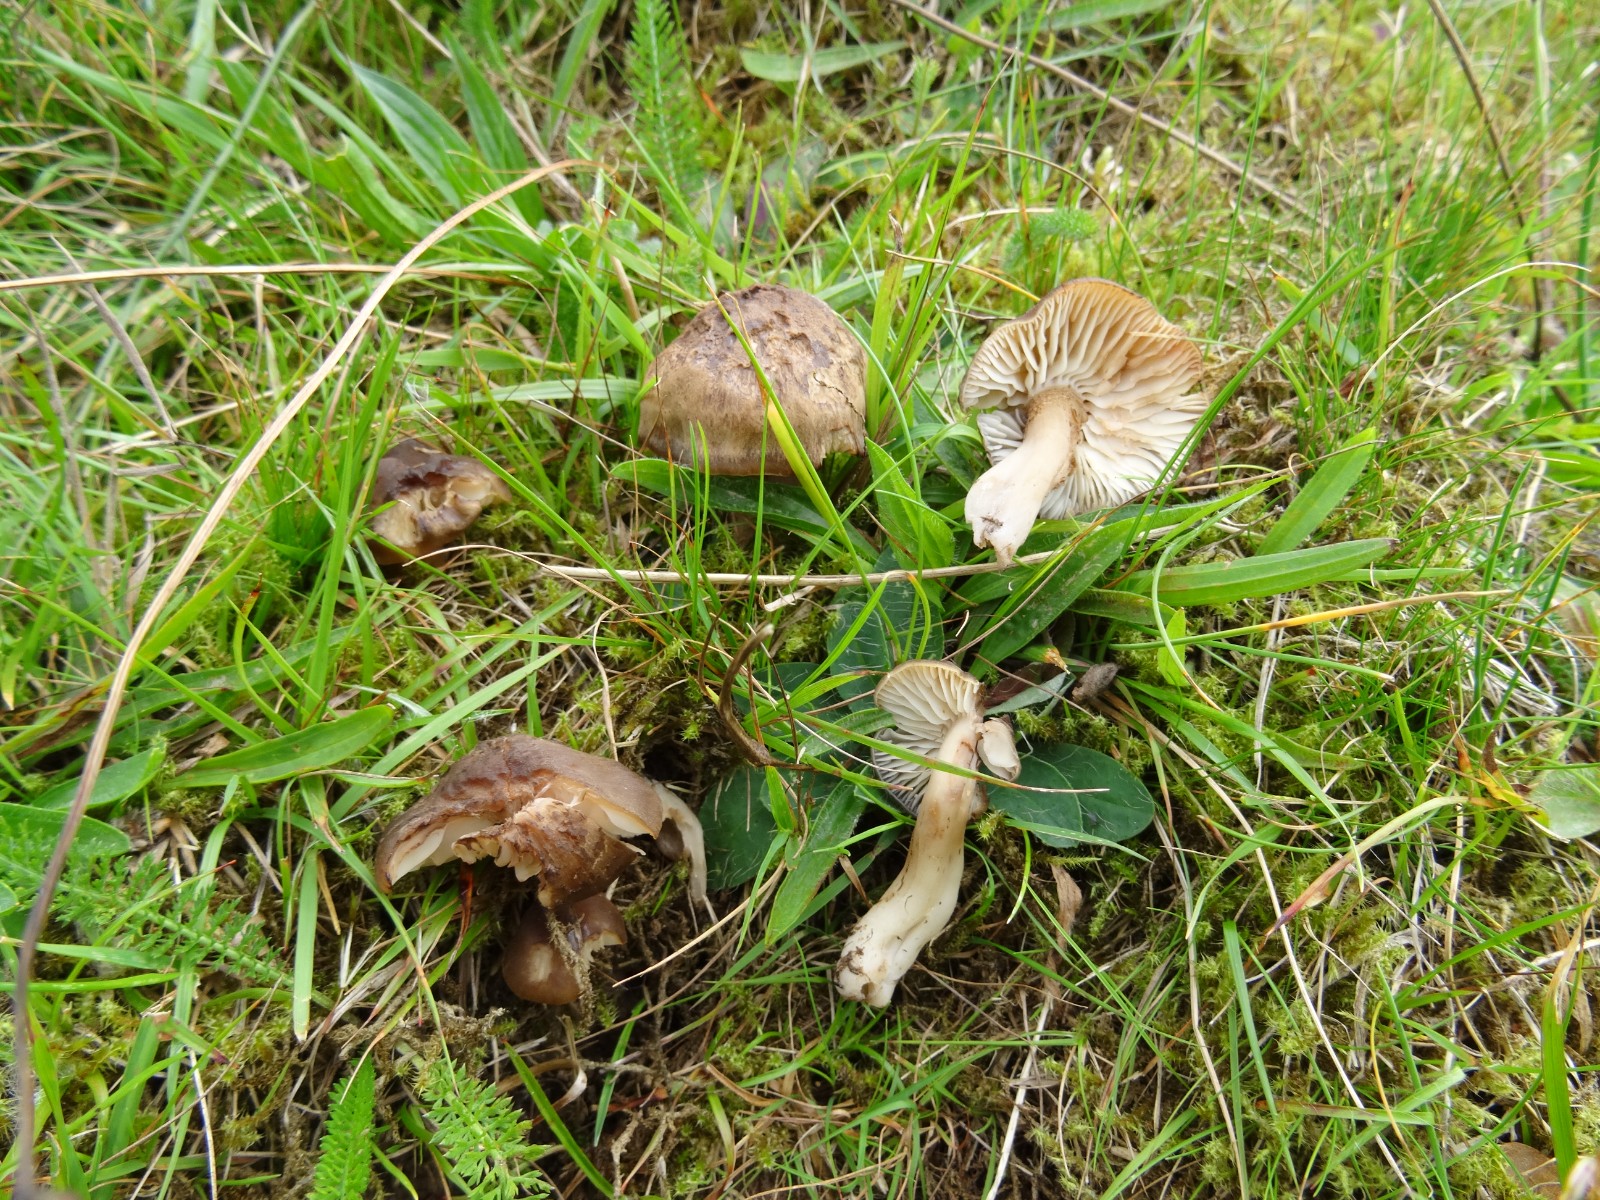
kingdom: Fungi
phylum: Basidiomycota
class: Agaricomycetes
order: Agaricales
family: Hygrophoraceae
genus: Hygrocybe
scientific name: Hygrocybe ingrata
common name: Jensens vokshat
